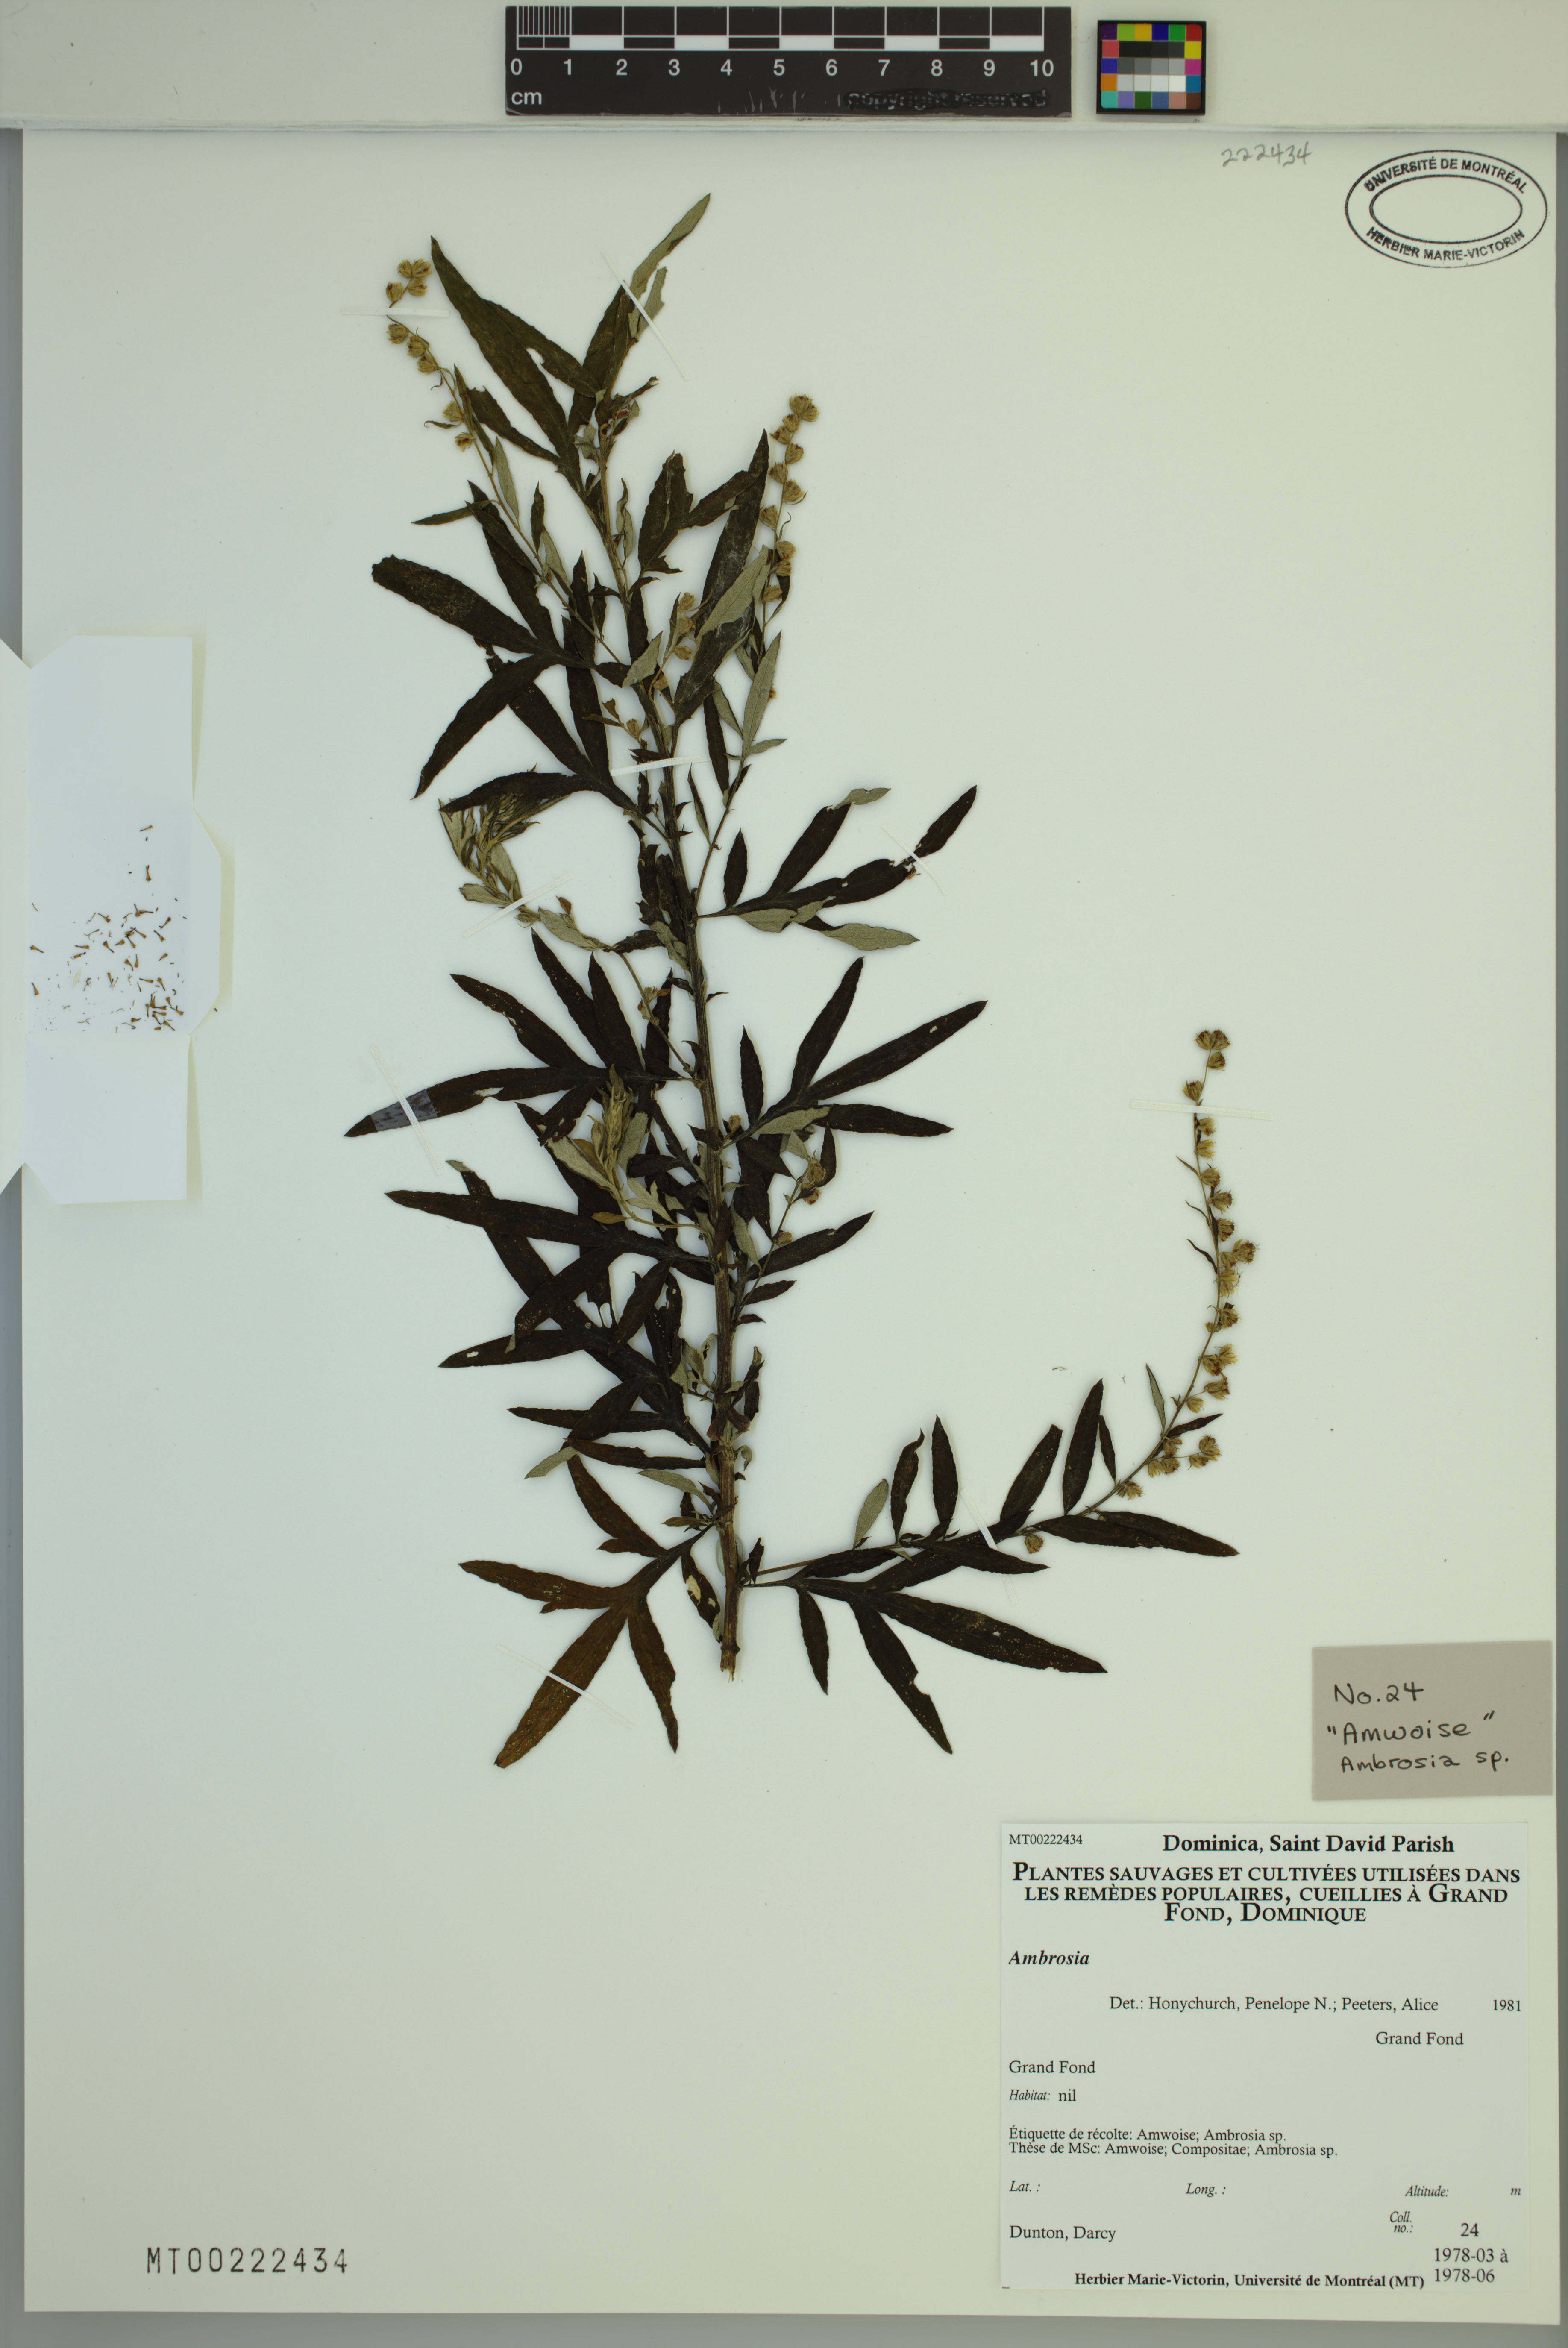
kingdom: Plantae
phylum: Tracheophyta
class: Magnoliopsida
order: Asterales
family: Asteraceae
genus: Ambrosia
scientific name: Ambrosia
